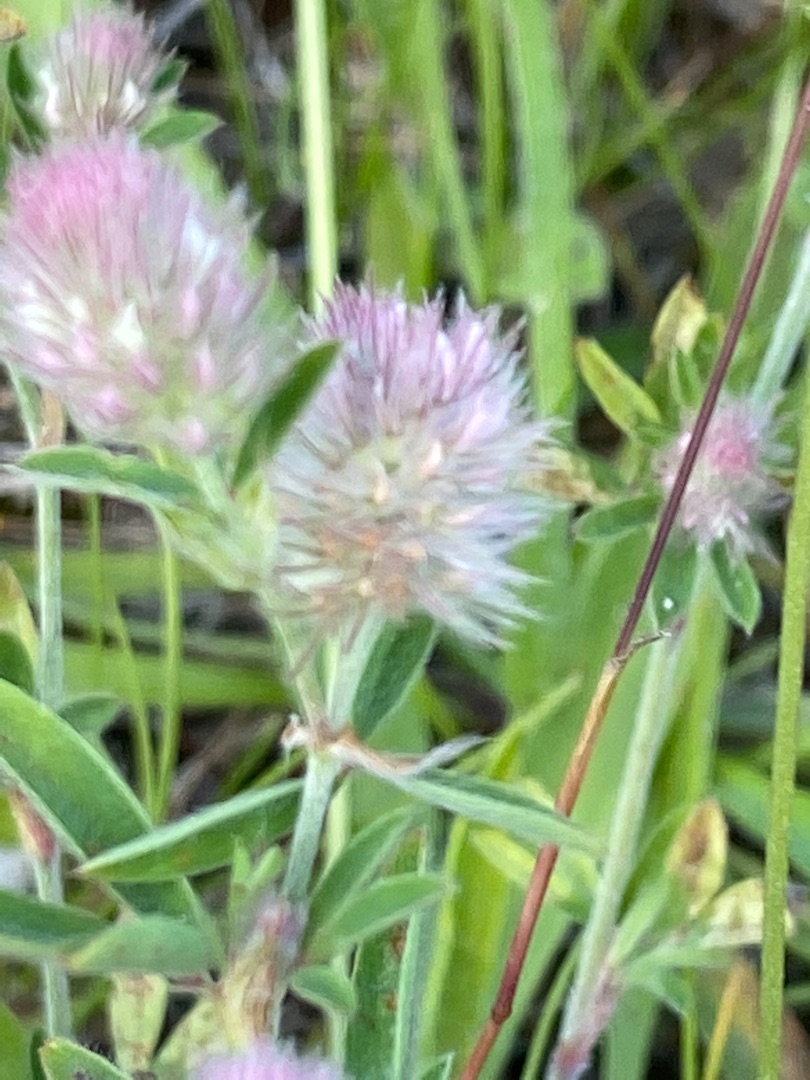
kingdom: Plantae
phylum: Tracheophyta
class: Magnoliopsida
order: Fabales
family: Fabaceae
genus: Trifolium
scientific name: Trifolium arvense
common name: Hare-kløver
